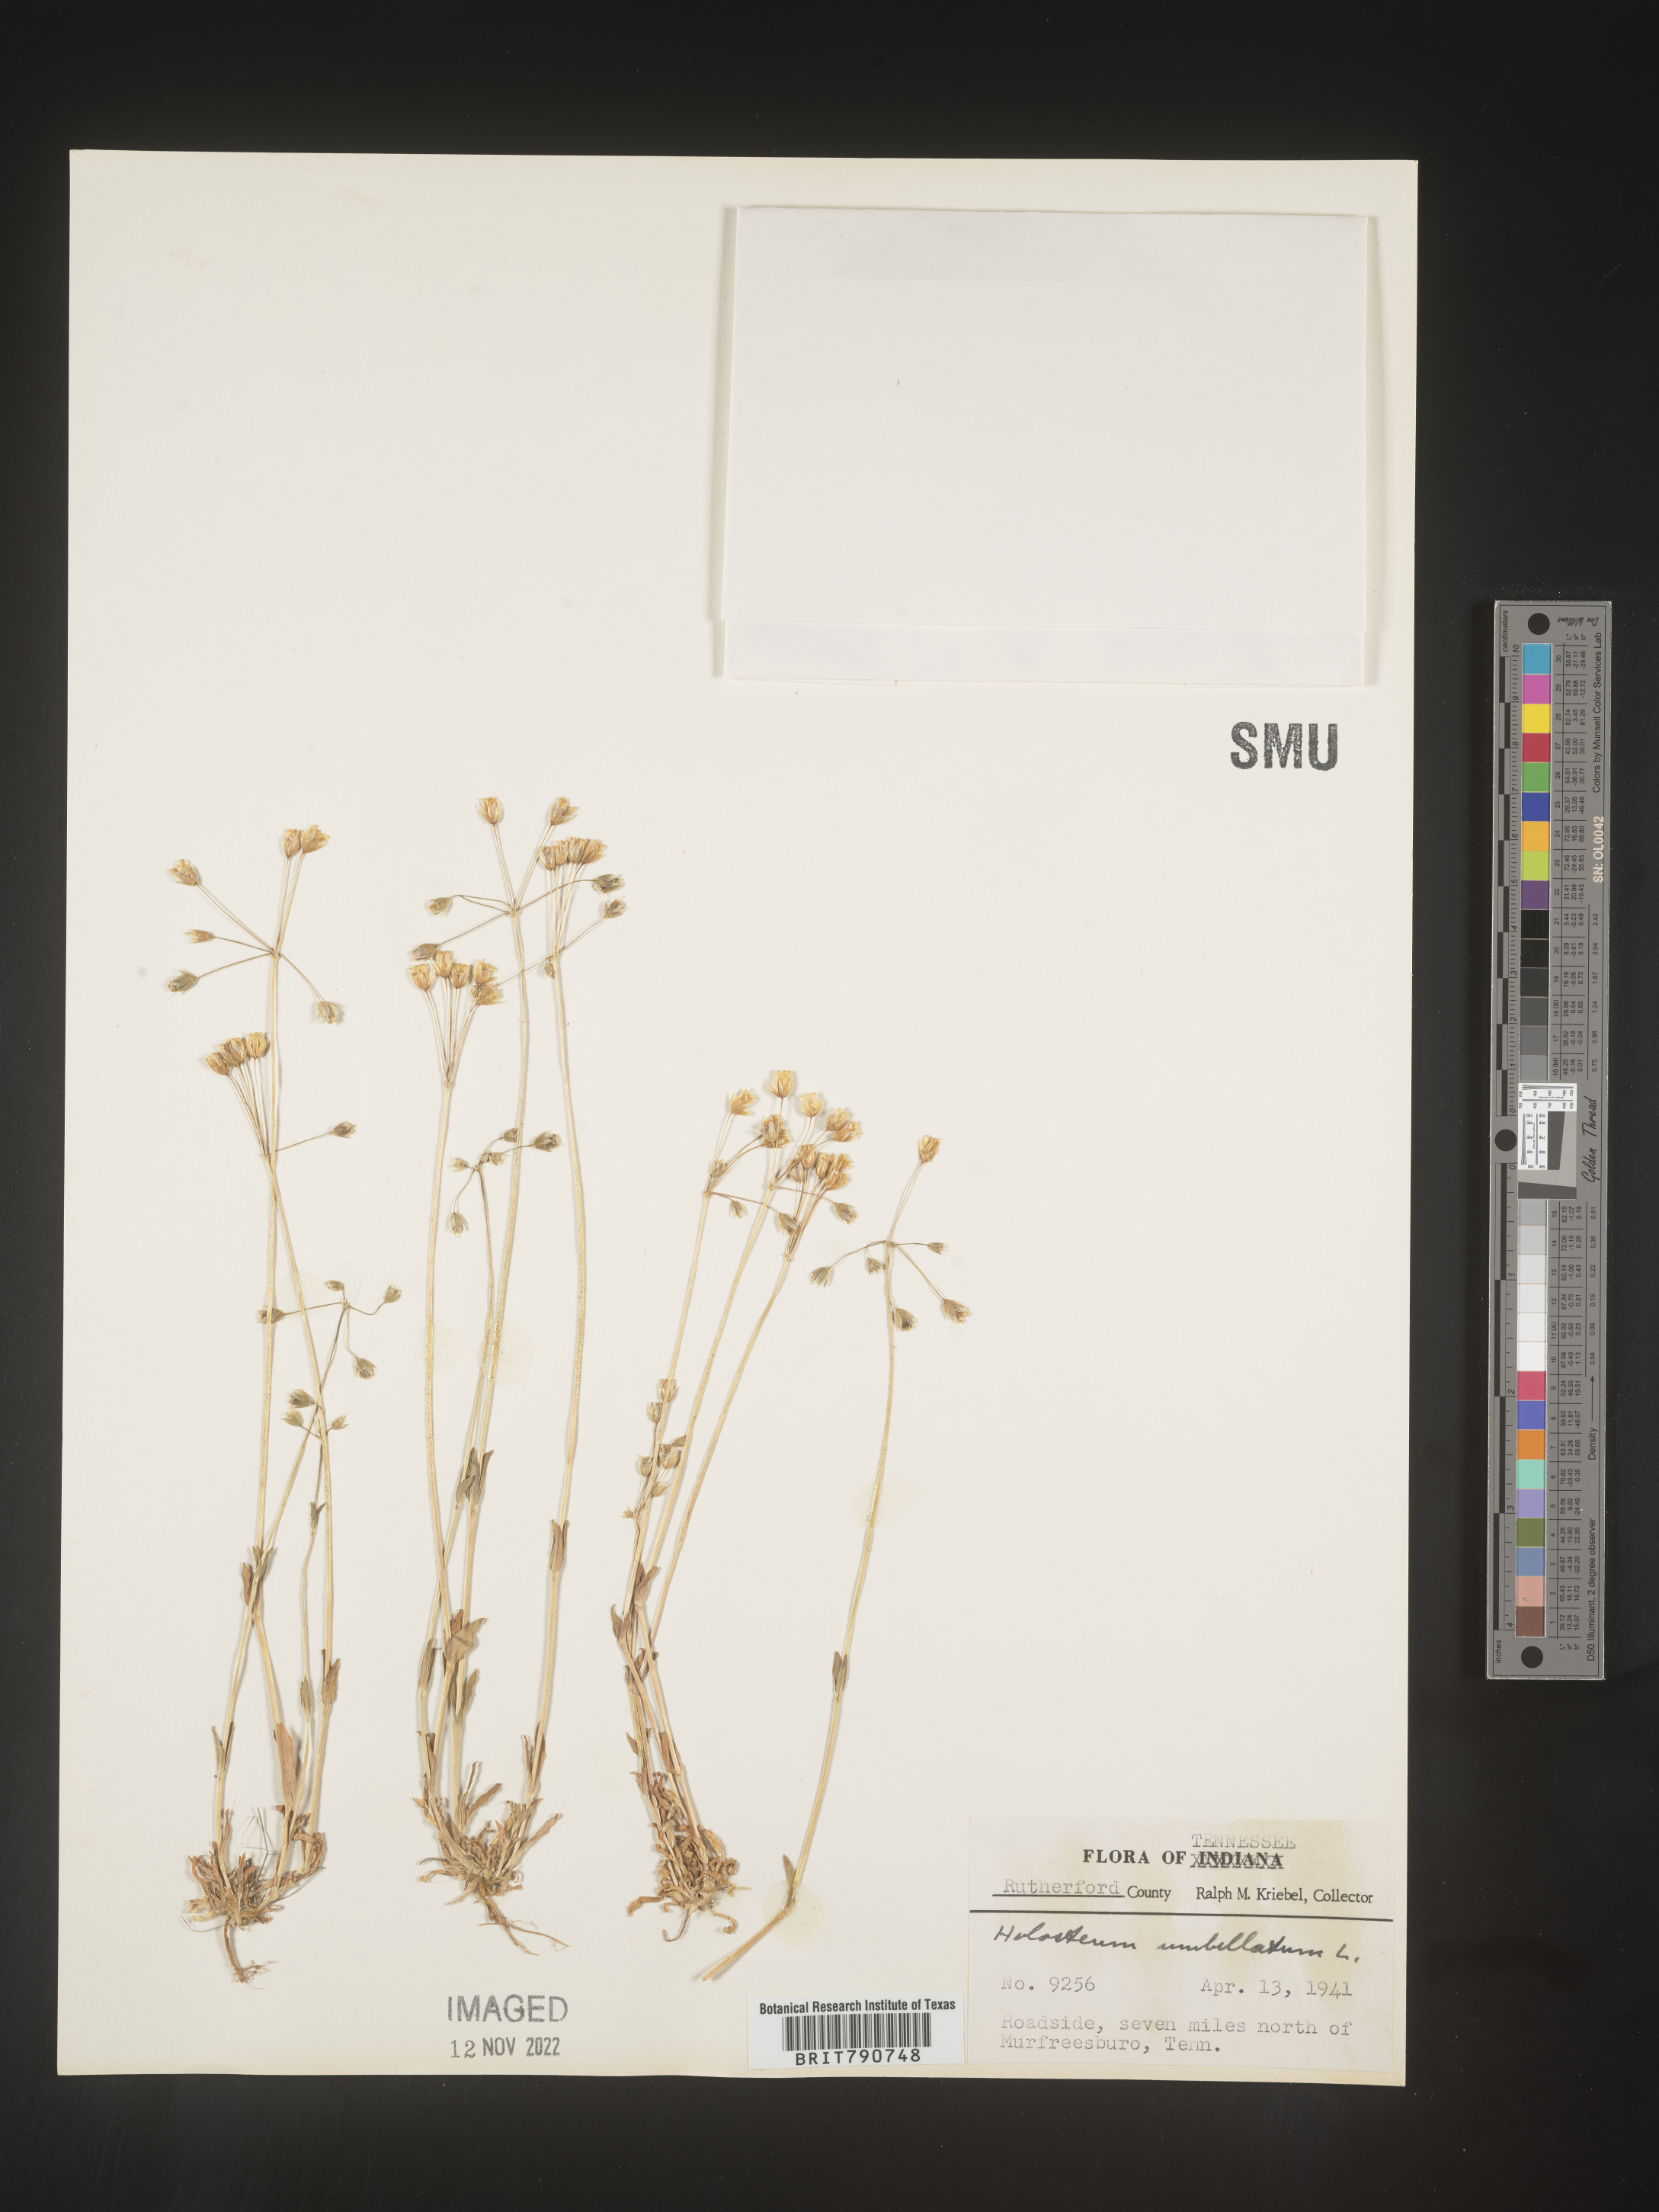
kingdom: Plantae
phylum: Tracheophyta
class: Magnoliopsida
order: Caryophyllales
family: Caryophyllaceae
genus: Holosteum
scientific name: Holosteum
